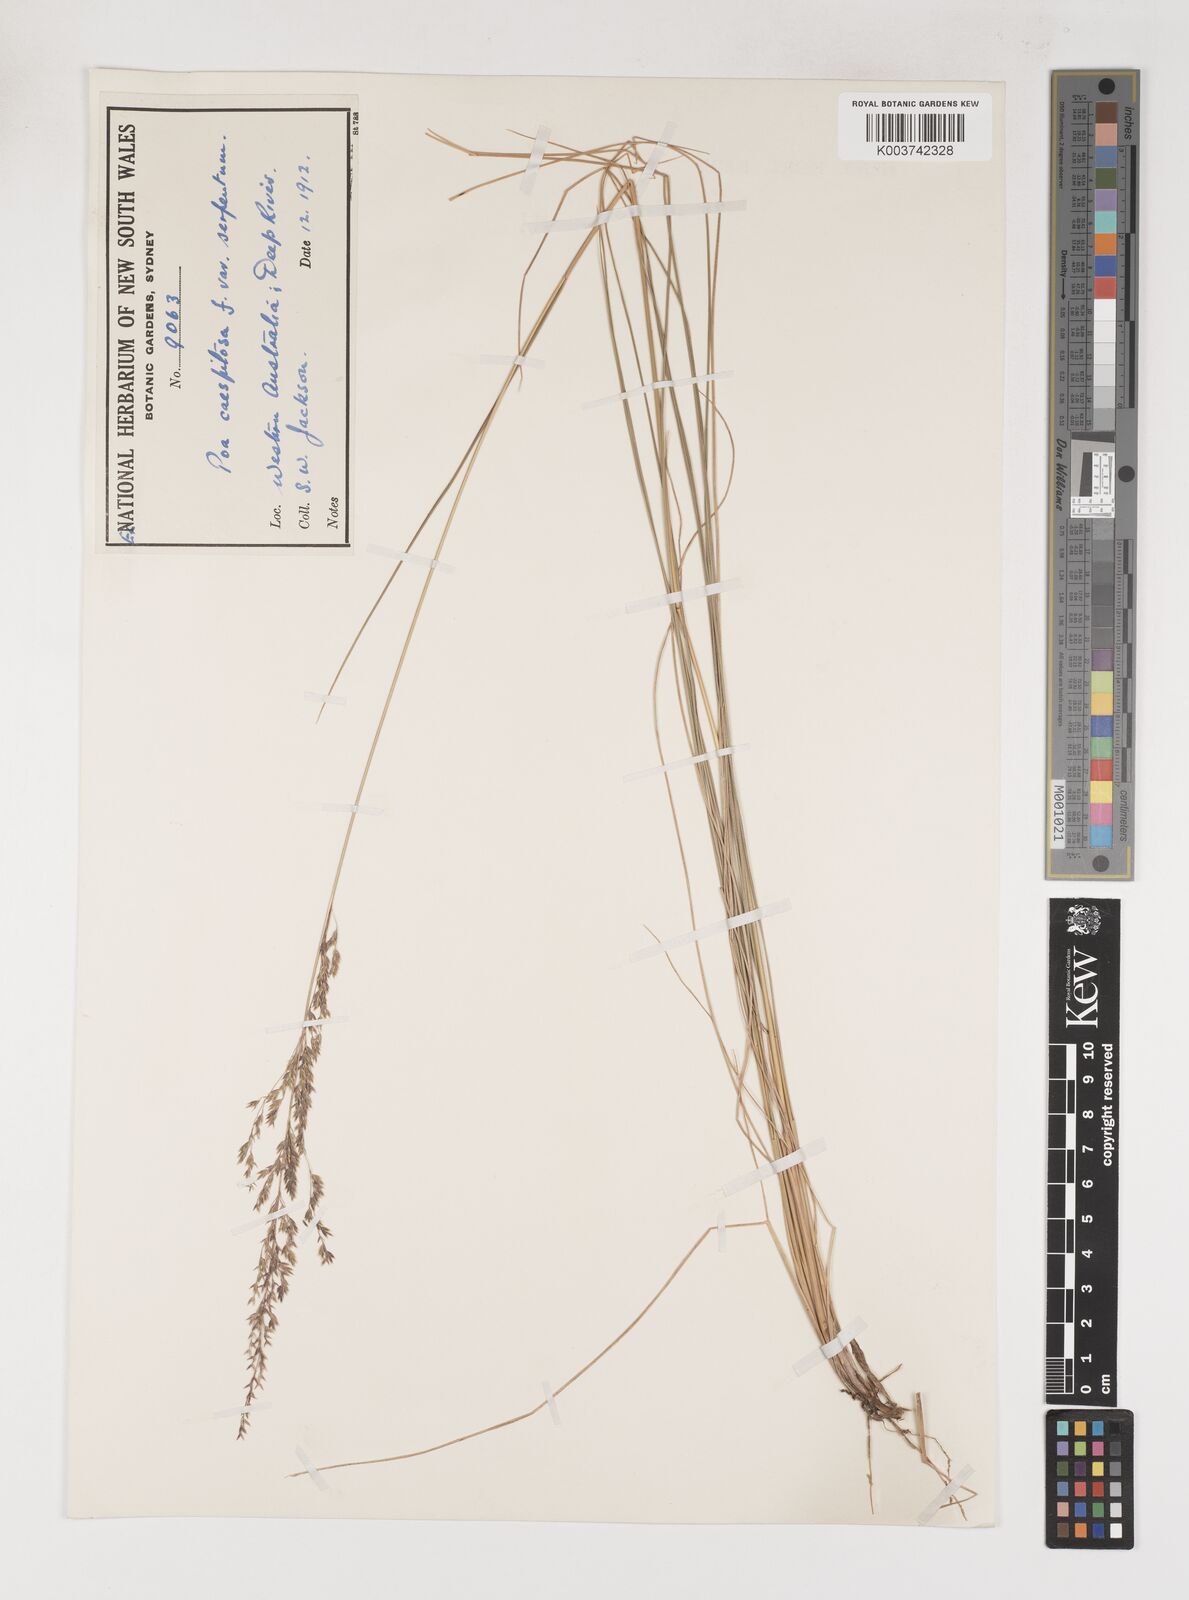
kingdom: Plantae
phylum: Tracheophyta
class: Liliopsida
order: Poales
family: Poaceae
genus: Poa
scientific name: Poa porphyroclados
